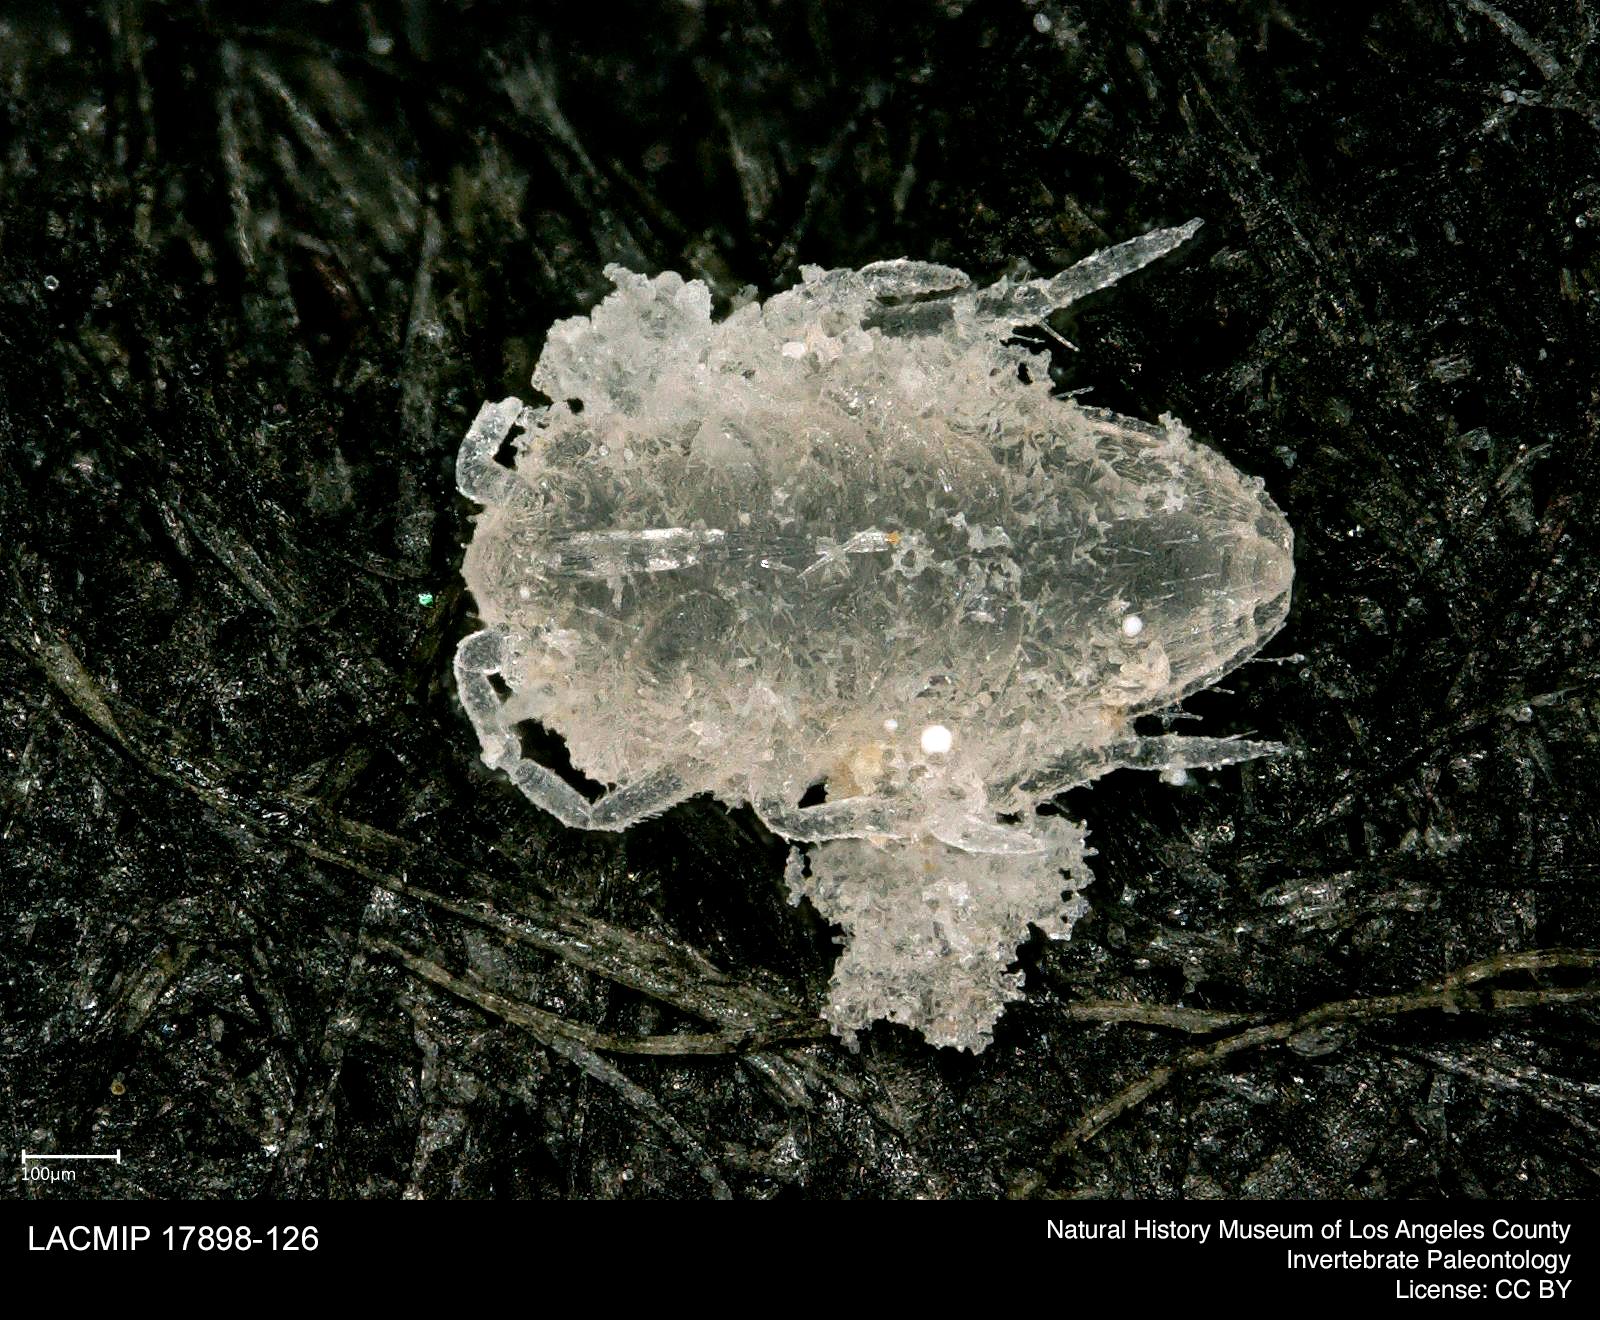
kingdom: Animalia
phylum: Arthropoda
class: Insecta
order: Hemiptera
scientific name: Hemiptera
